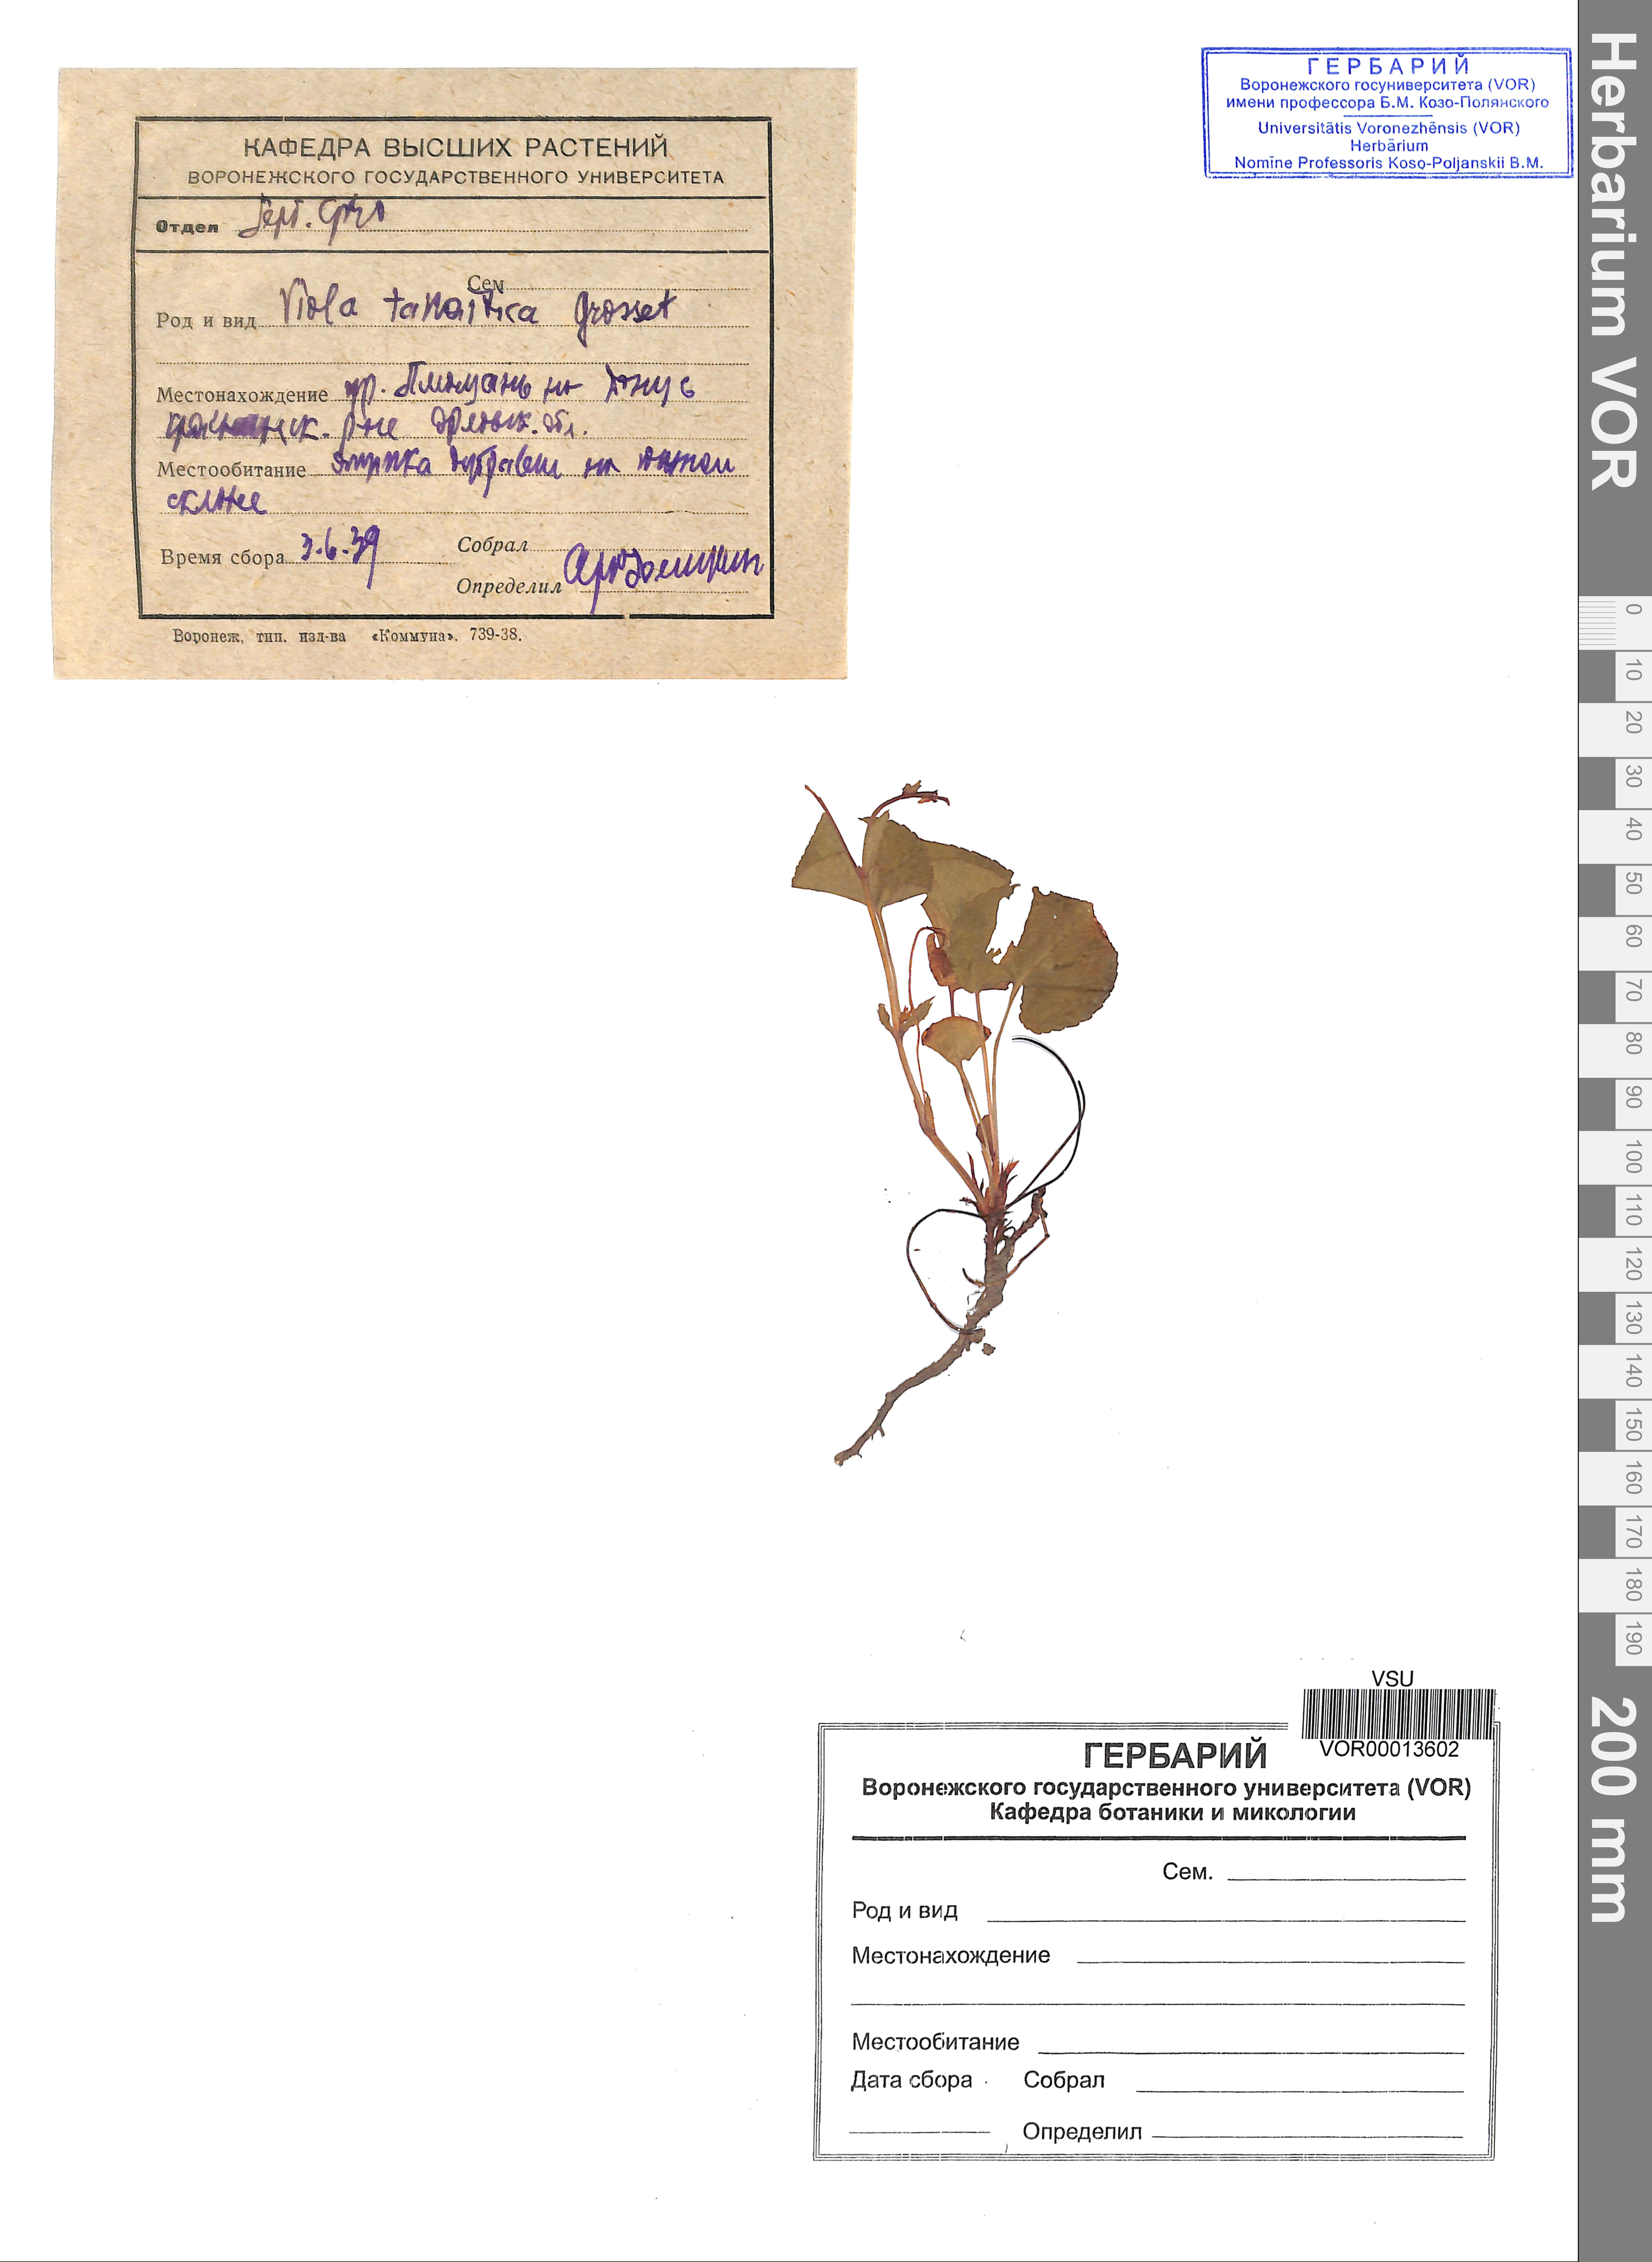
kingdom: Plantae
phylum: Tracheophyta
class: Magnoliopsida
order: Malpighiales
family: Violaceae
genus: Viola
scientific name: Viola tanaitica
